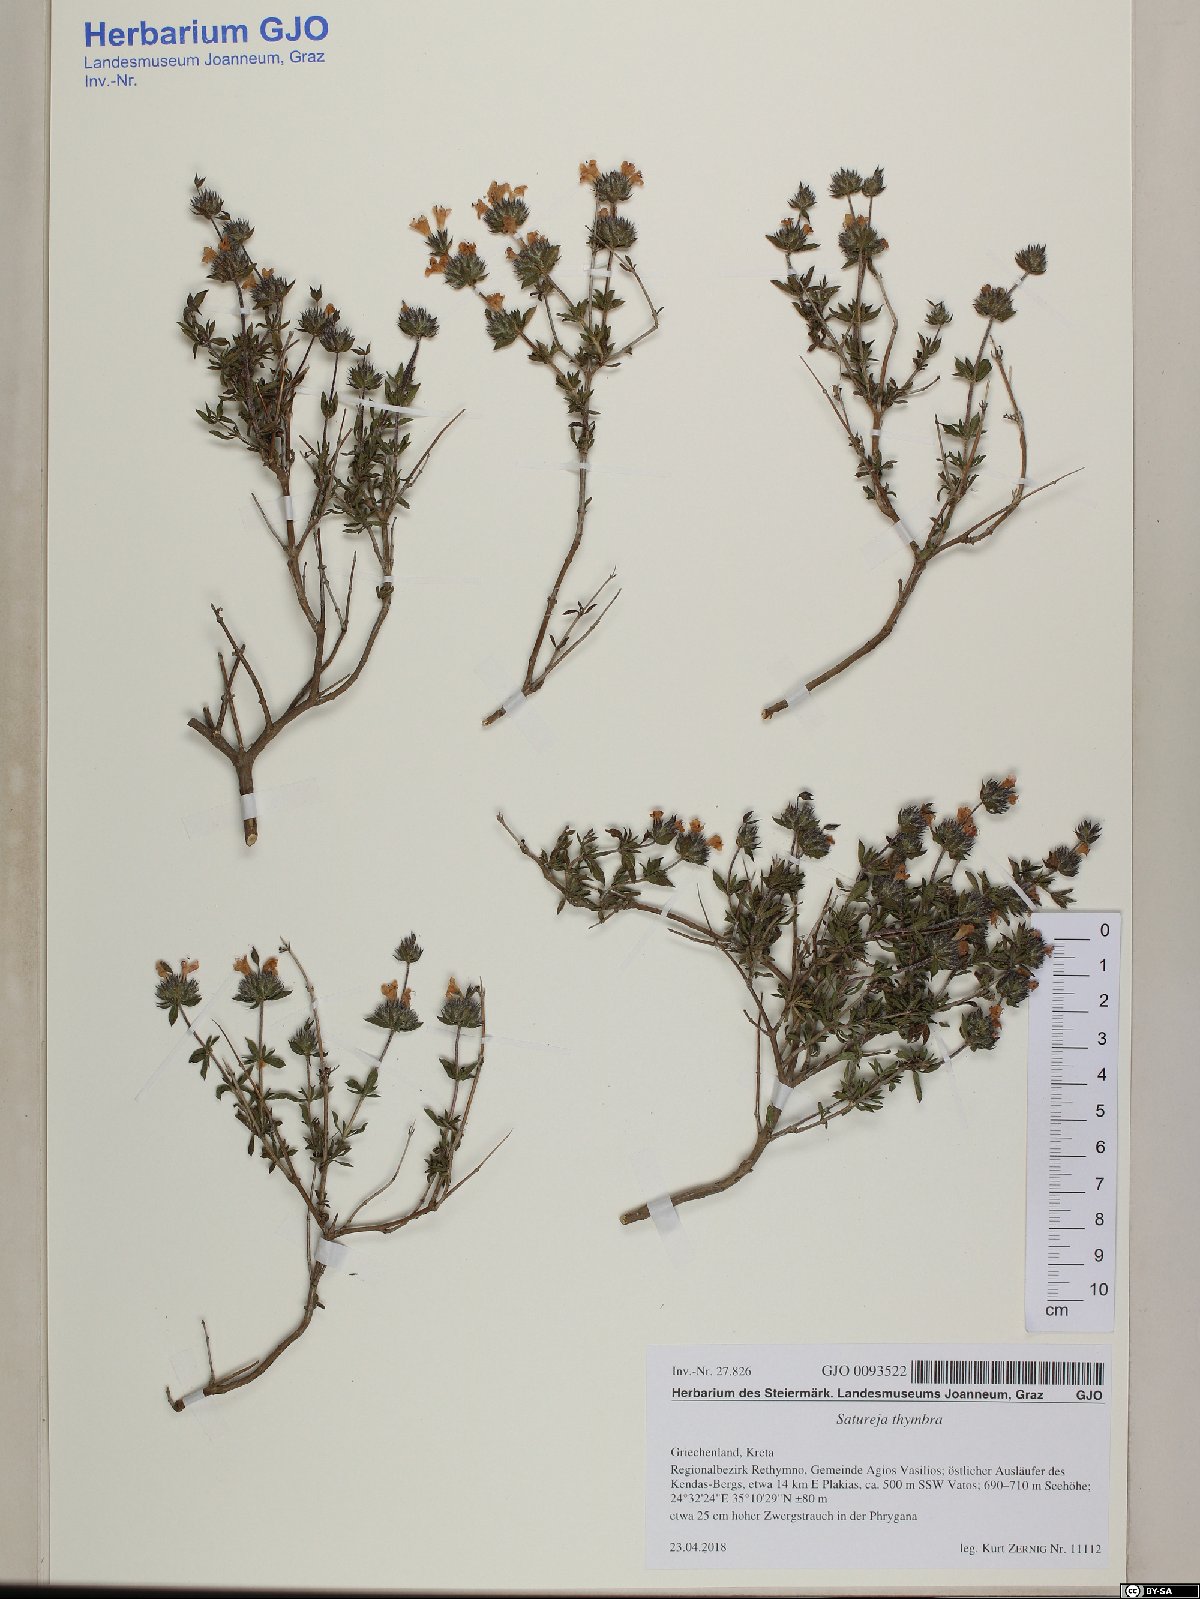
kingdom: Plantae
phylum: Tracheophyta
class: Magnoliopsida
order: Lamiales
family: Lamiaceae
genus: Satureja
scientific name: Satureja thymbra
